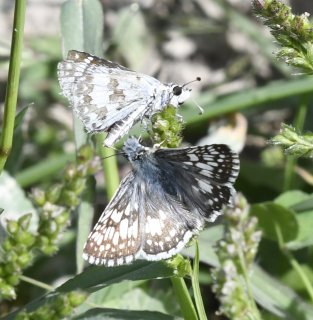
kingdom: Animalia
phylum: Arthropoda
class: Insecta
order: Lepidoptera
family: Hesperiidae
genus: Pyrgus
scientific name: Pyrgus communis
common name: Common Checkered-Skipper
